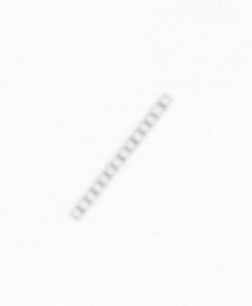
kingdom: Chromista
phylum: Ochrophyta
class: Bacillariophyceae
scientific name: Bacillariophyceae
